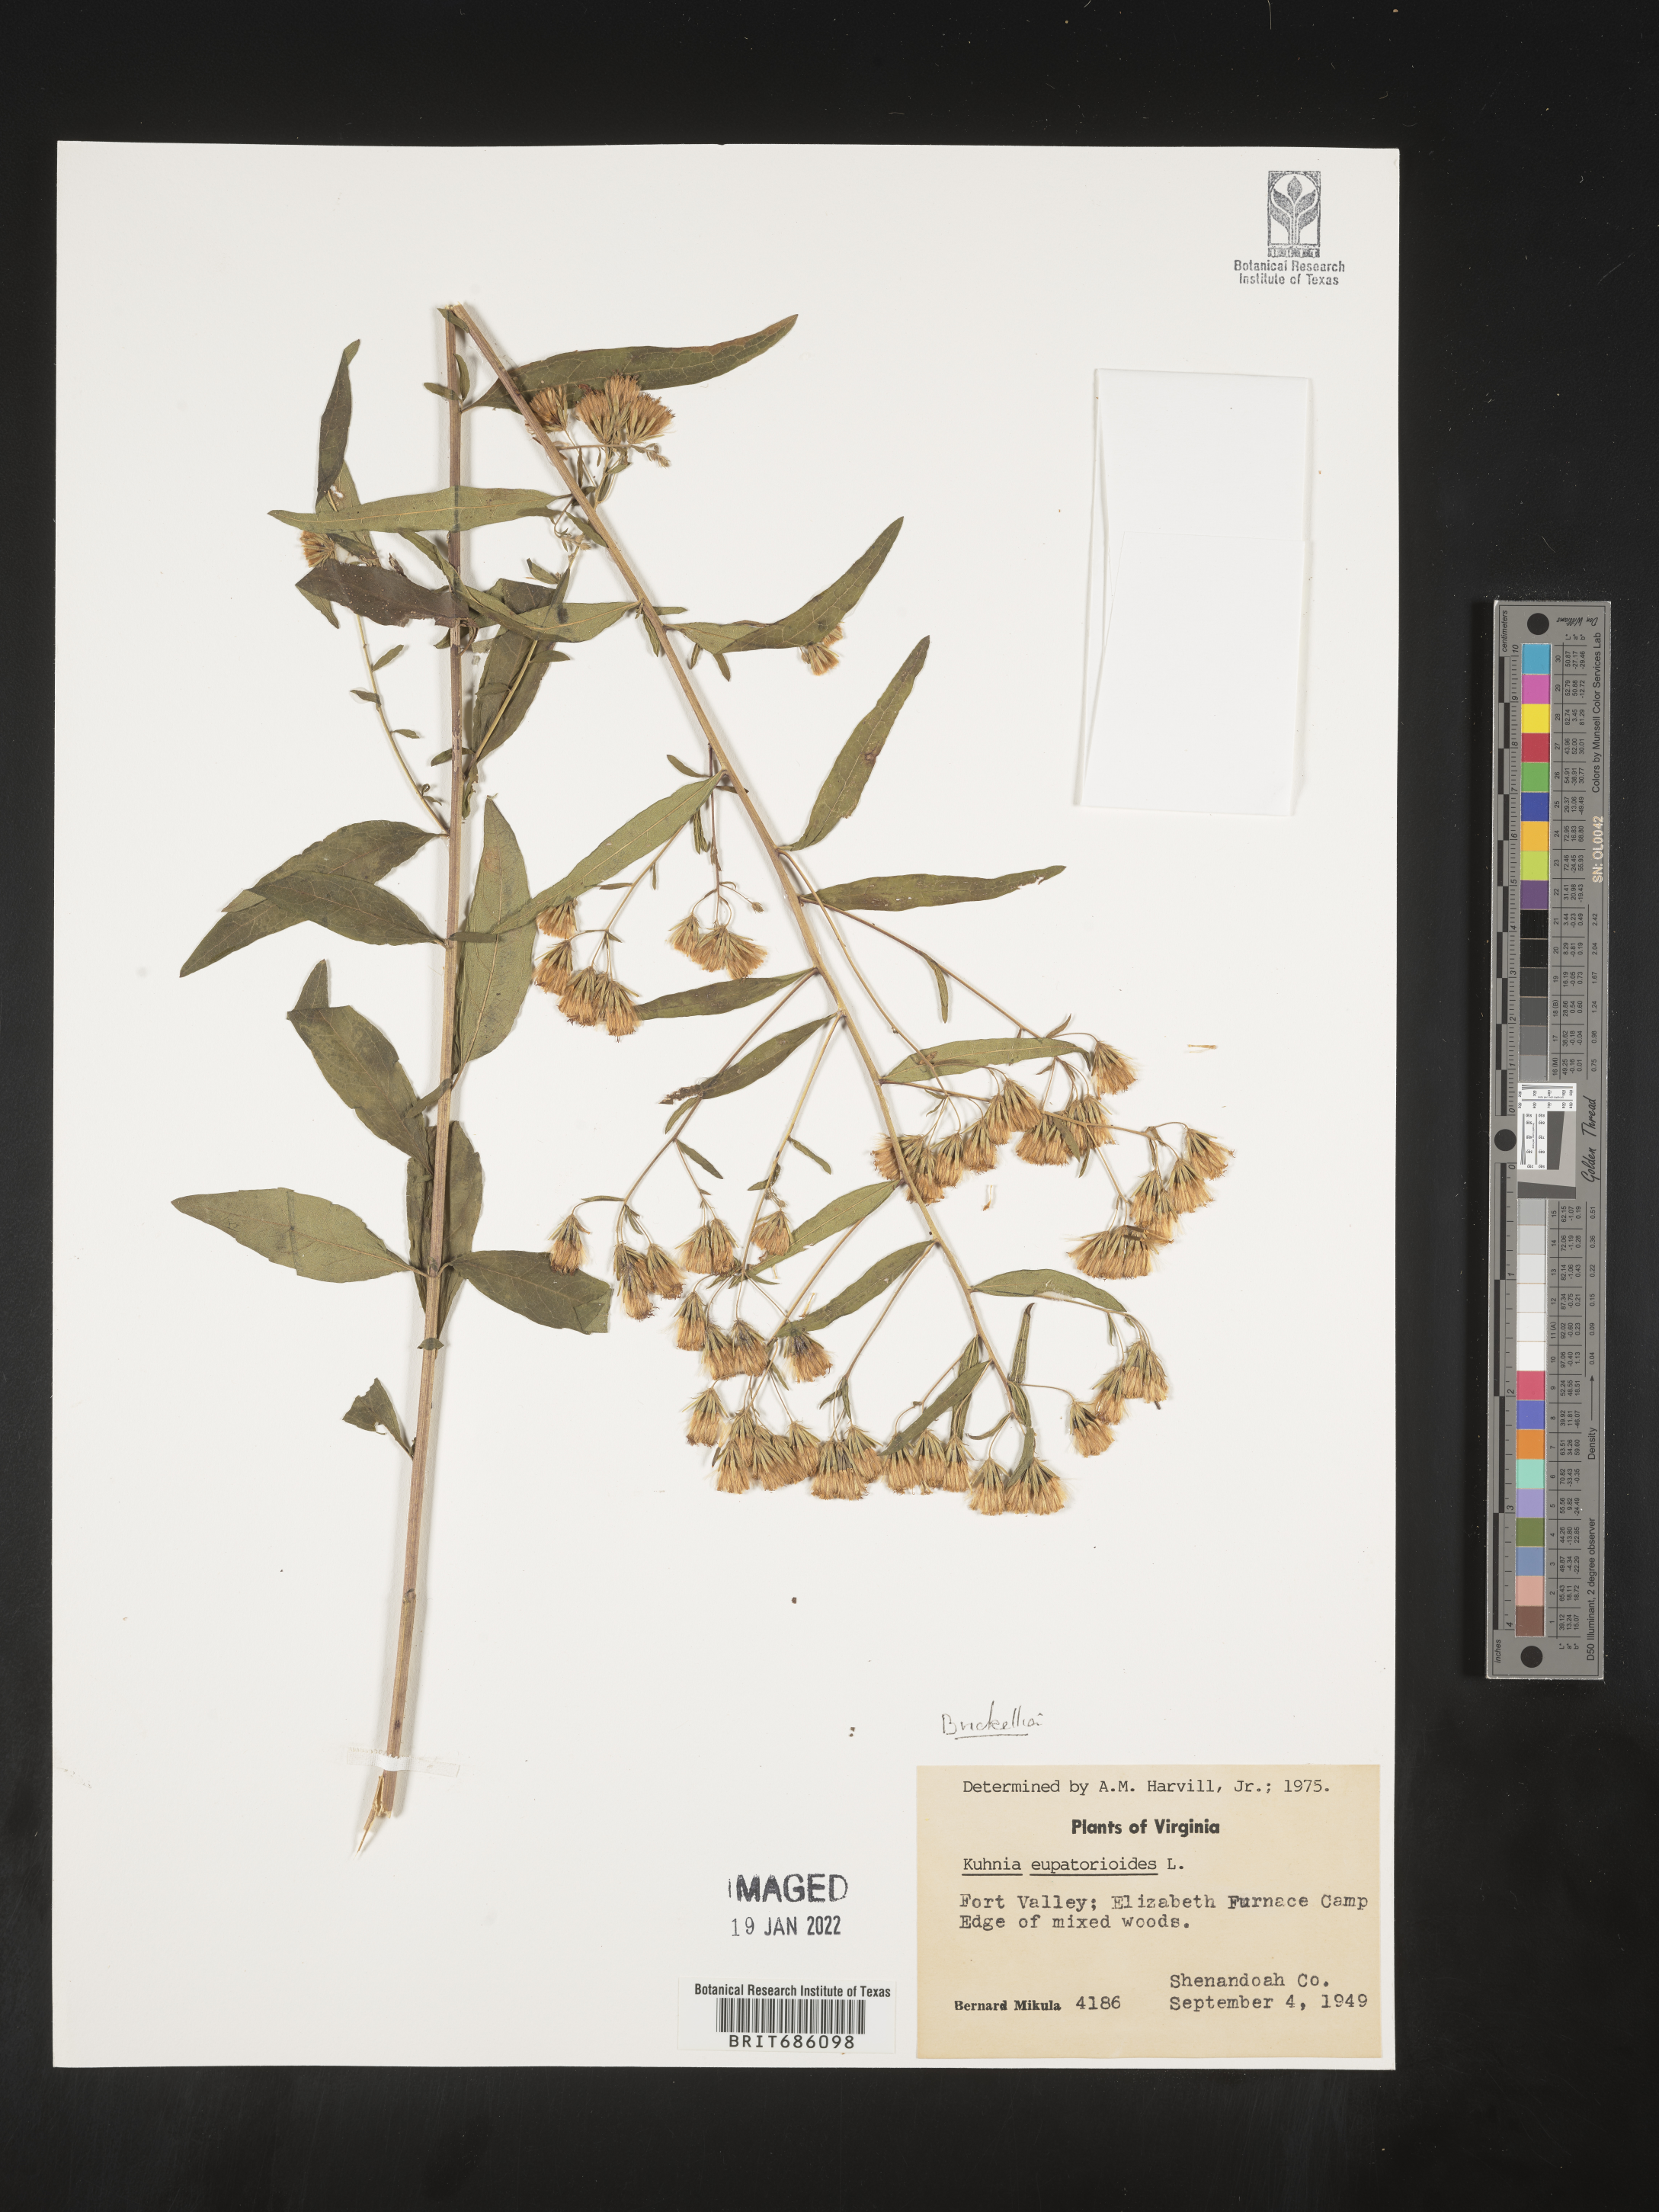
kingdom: Plantae
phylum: Tracheophyta
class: Magnoliopsida
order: Asterales
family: Asteraceae
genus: Brickellia
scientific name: Brickellia
